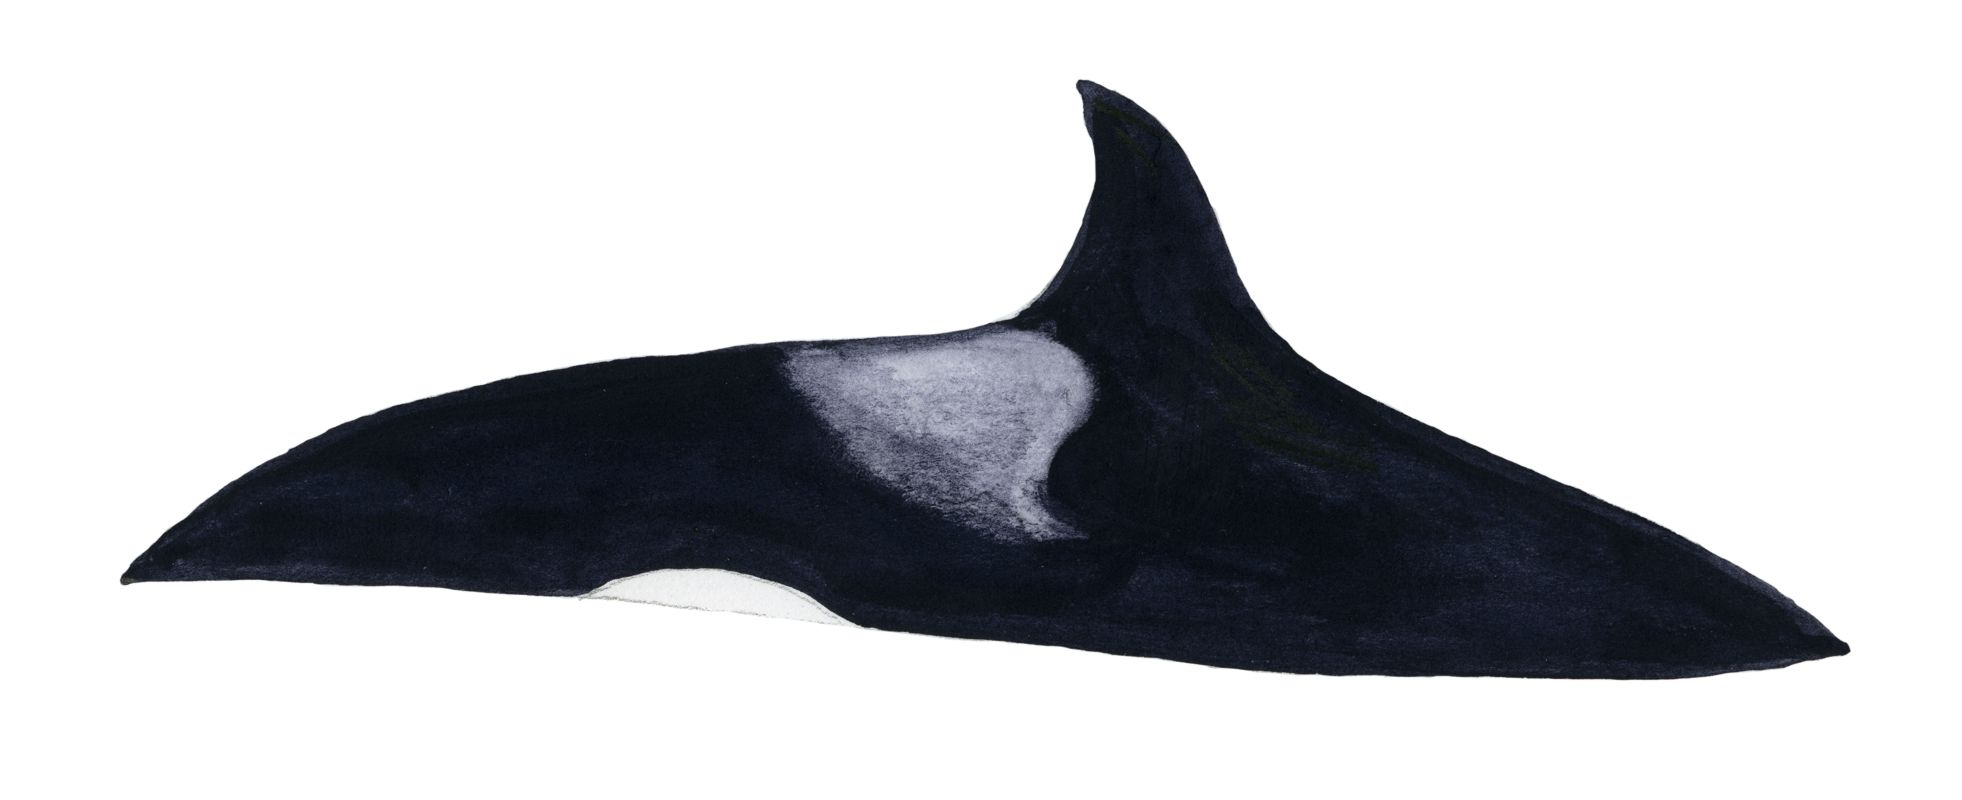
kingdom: Animalia
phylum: Chordata
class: Mammalia
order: Cetacea
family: Delphinidae
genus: Orcinus
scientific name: Orcinus orca
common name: Killer whale
